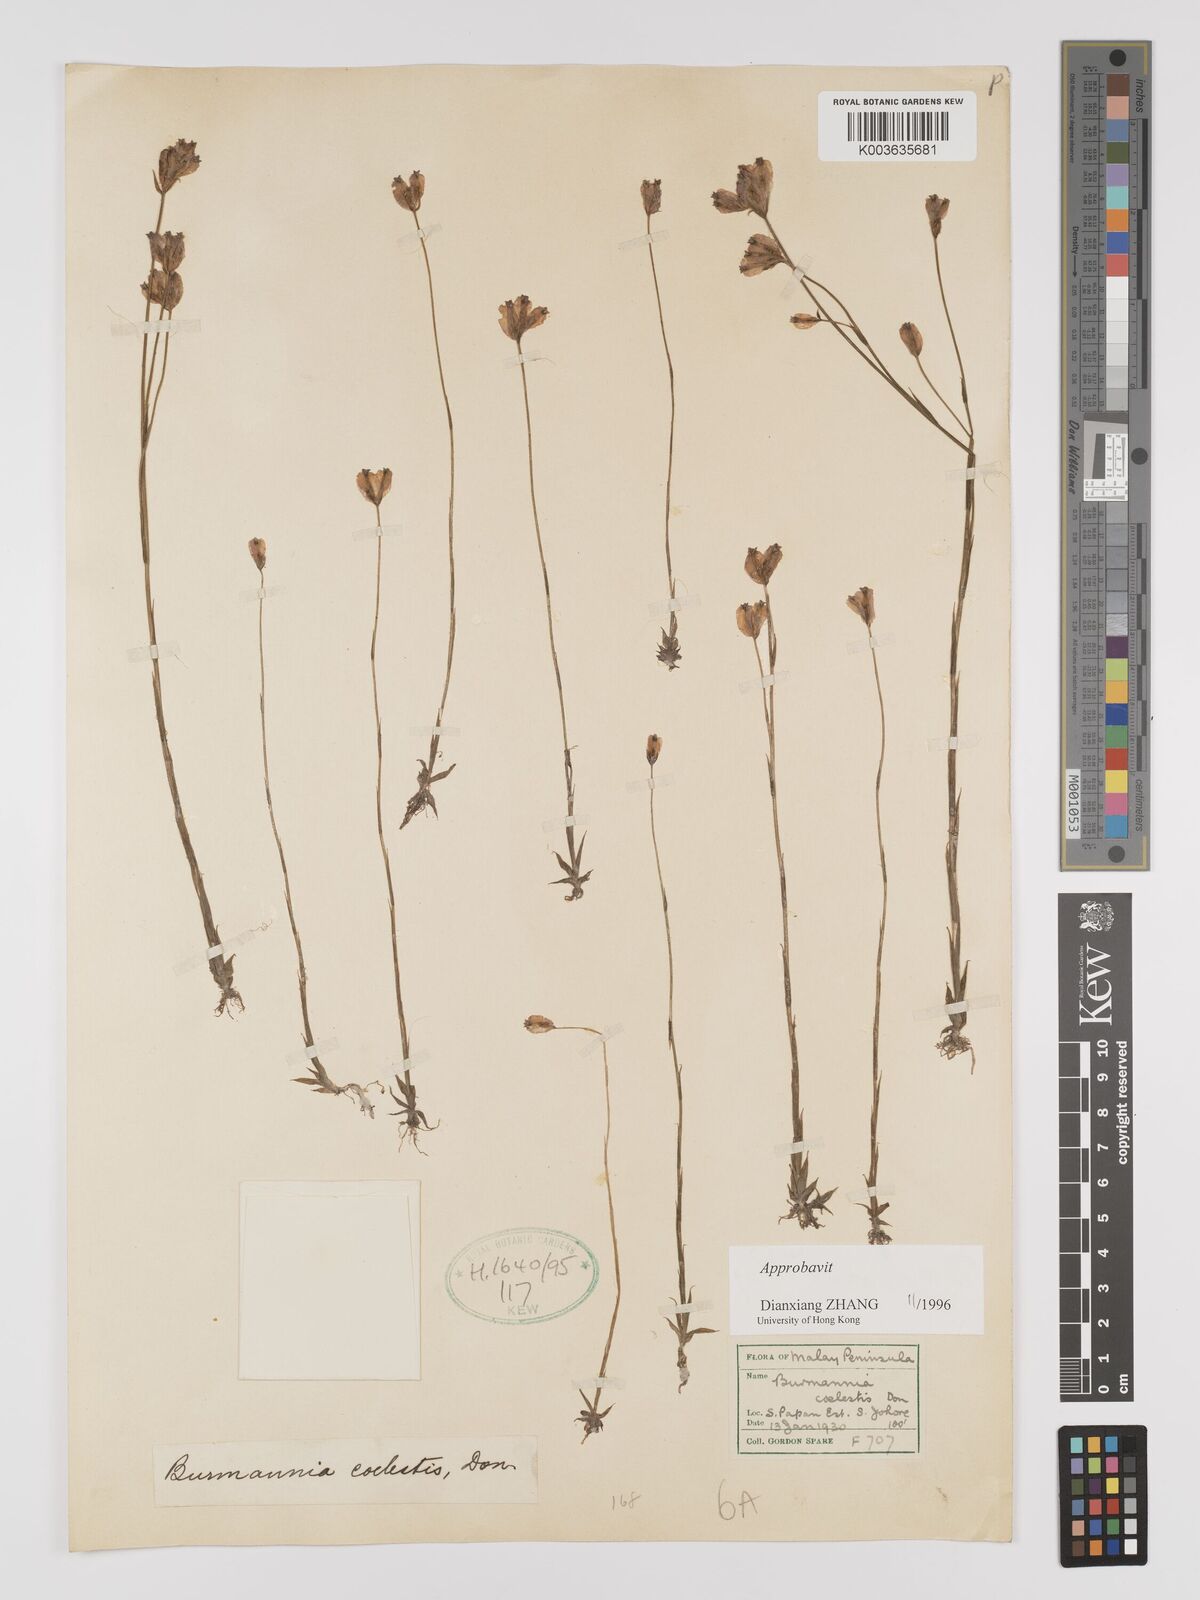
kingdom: Plantae
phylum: Tracheophyta
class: Liliopsida
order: Dioscoreales
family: Burmanniaceae
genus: Burmannia
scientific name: Burmannia coelestis
